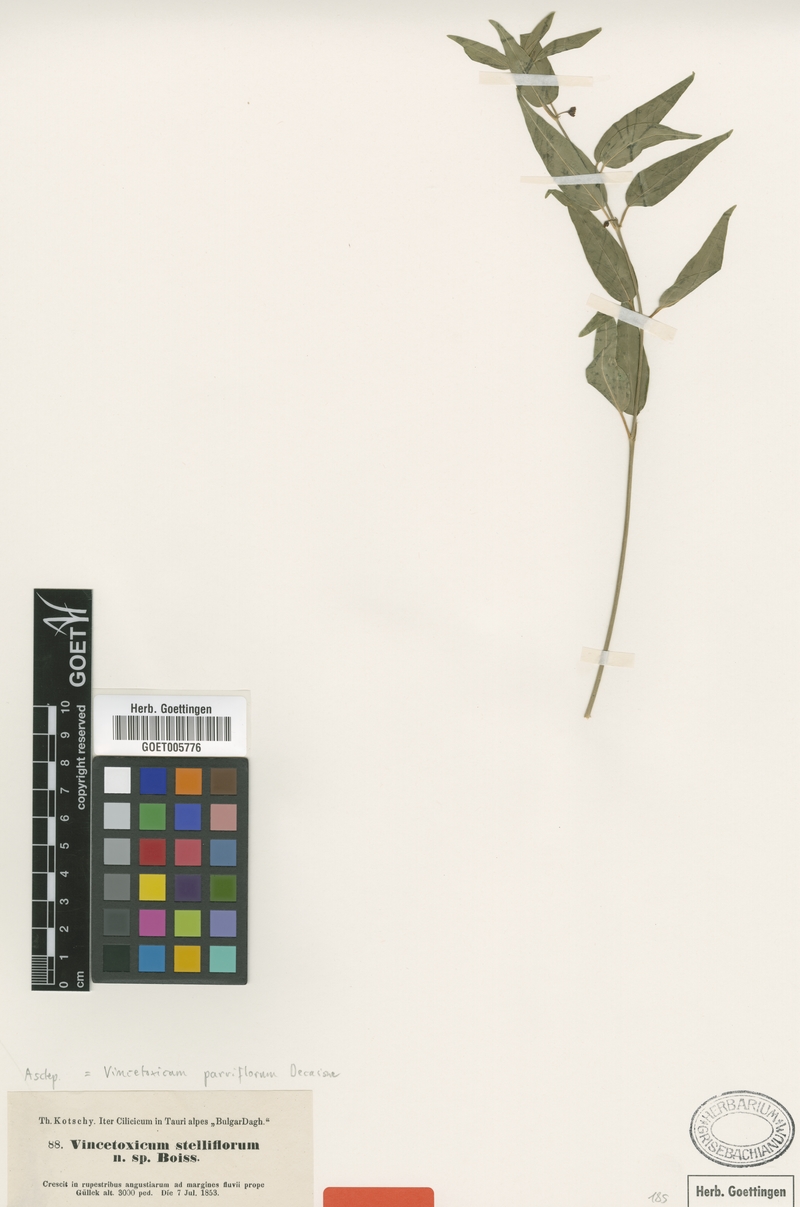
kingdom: Plantae
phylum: Tracheophyta
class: Magnoliopsida
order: Gentianales
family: Apocynaceae
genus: Vincetoxicum
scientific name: Vincetoxicum parviflorum
